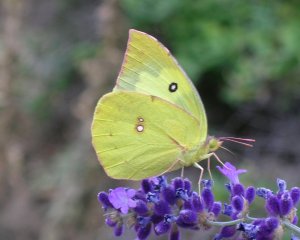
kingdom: Animalia
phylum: Arthropoda
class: Insecta
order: Lepidoptera
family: Pieridae
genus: Zerene
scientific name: Zerene cesonia
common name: Southern Dogface
